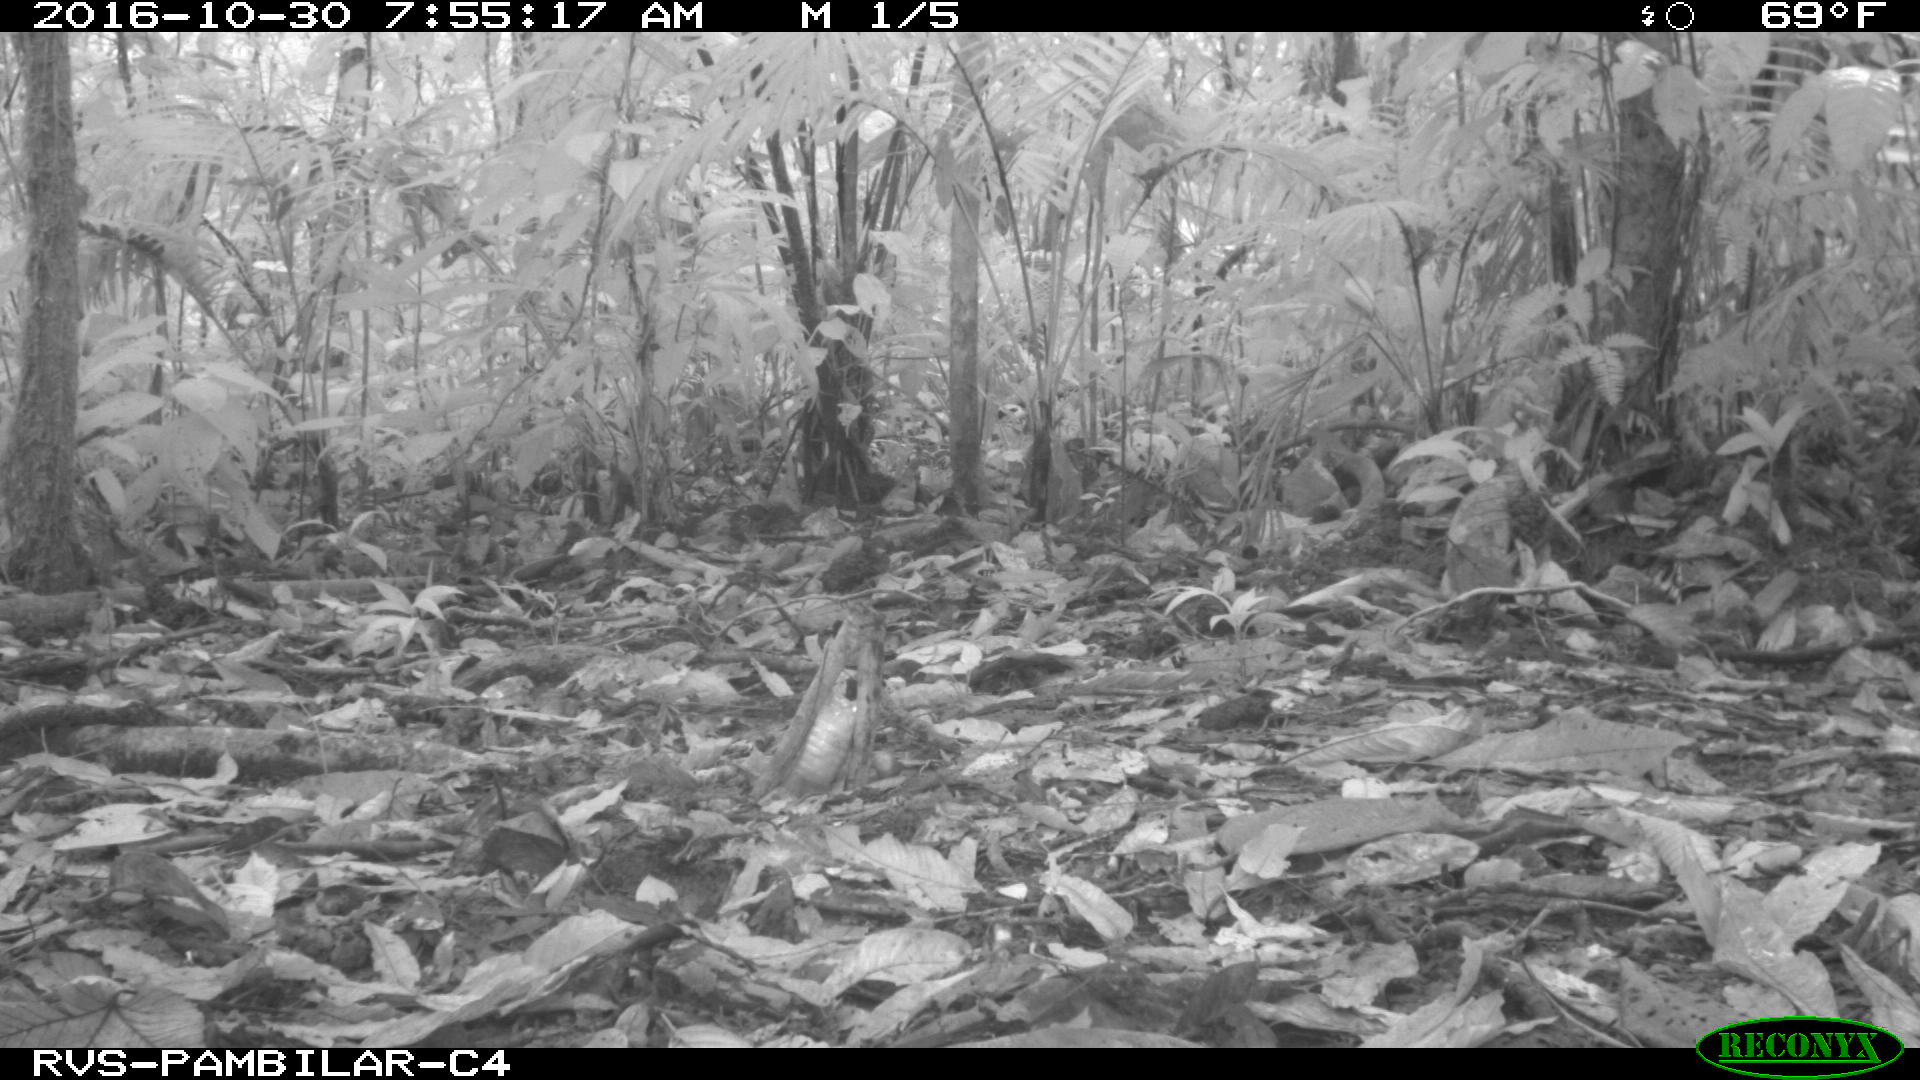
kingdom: Animalia
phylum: Chordata
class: Mammalia
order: Carnivora
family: Felidae
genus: Panthera
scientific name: Panthera onca
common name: Jaguar
